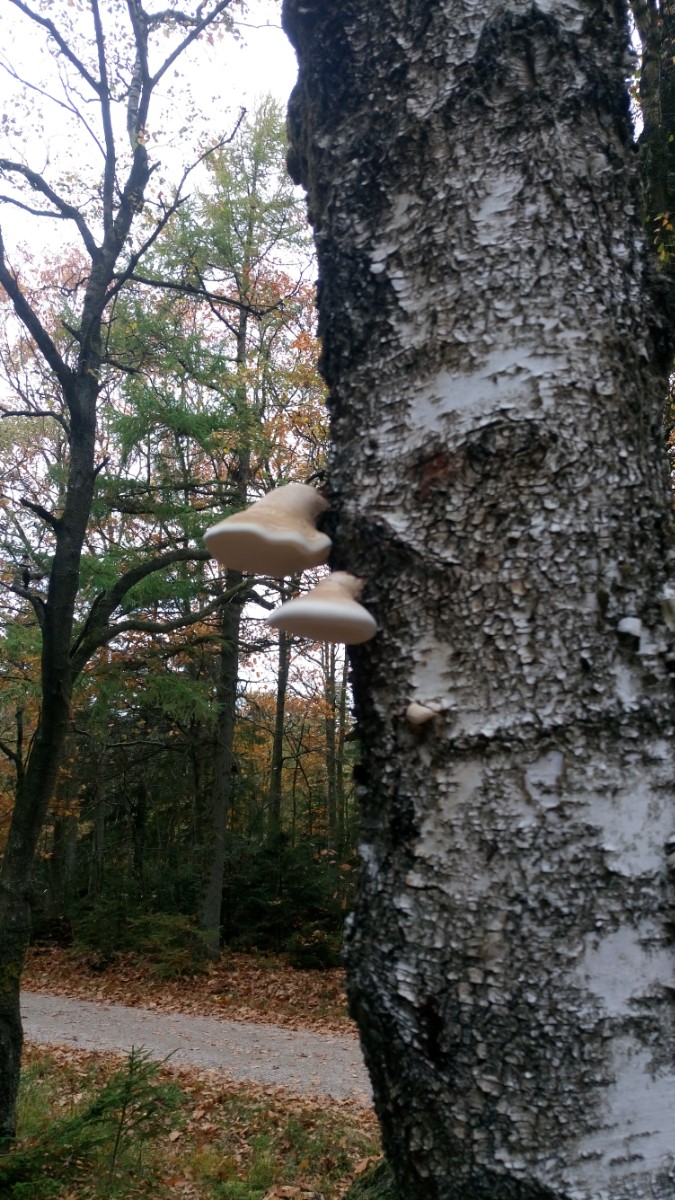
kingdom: Fungi
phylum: Basidiomycota
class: Agaricomycetes
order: Polyporales
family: Fomitopsidaceae
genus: Fomitopsis
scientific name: Fomitopsis betulina
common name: birkeporesvamp
